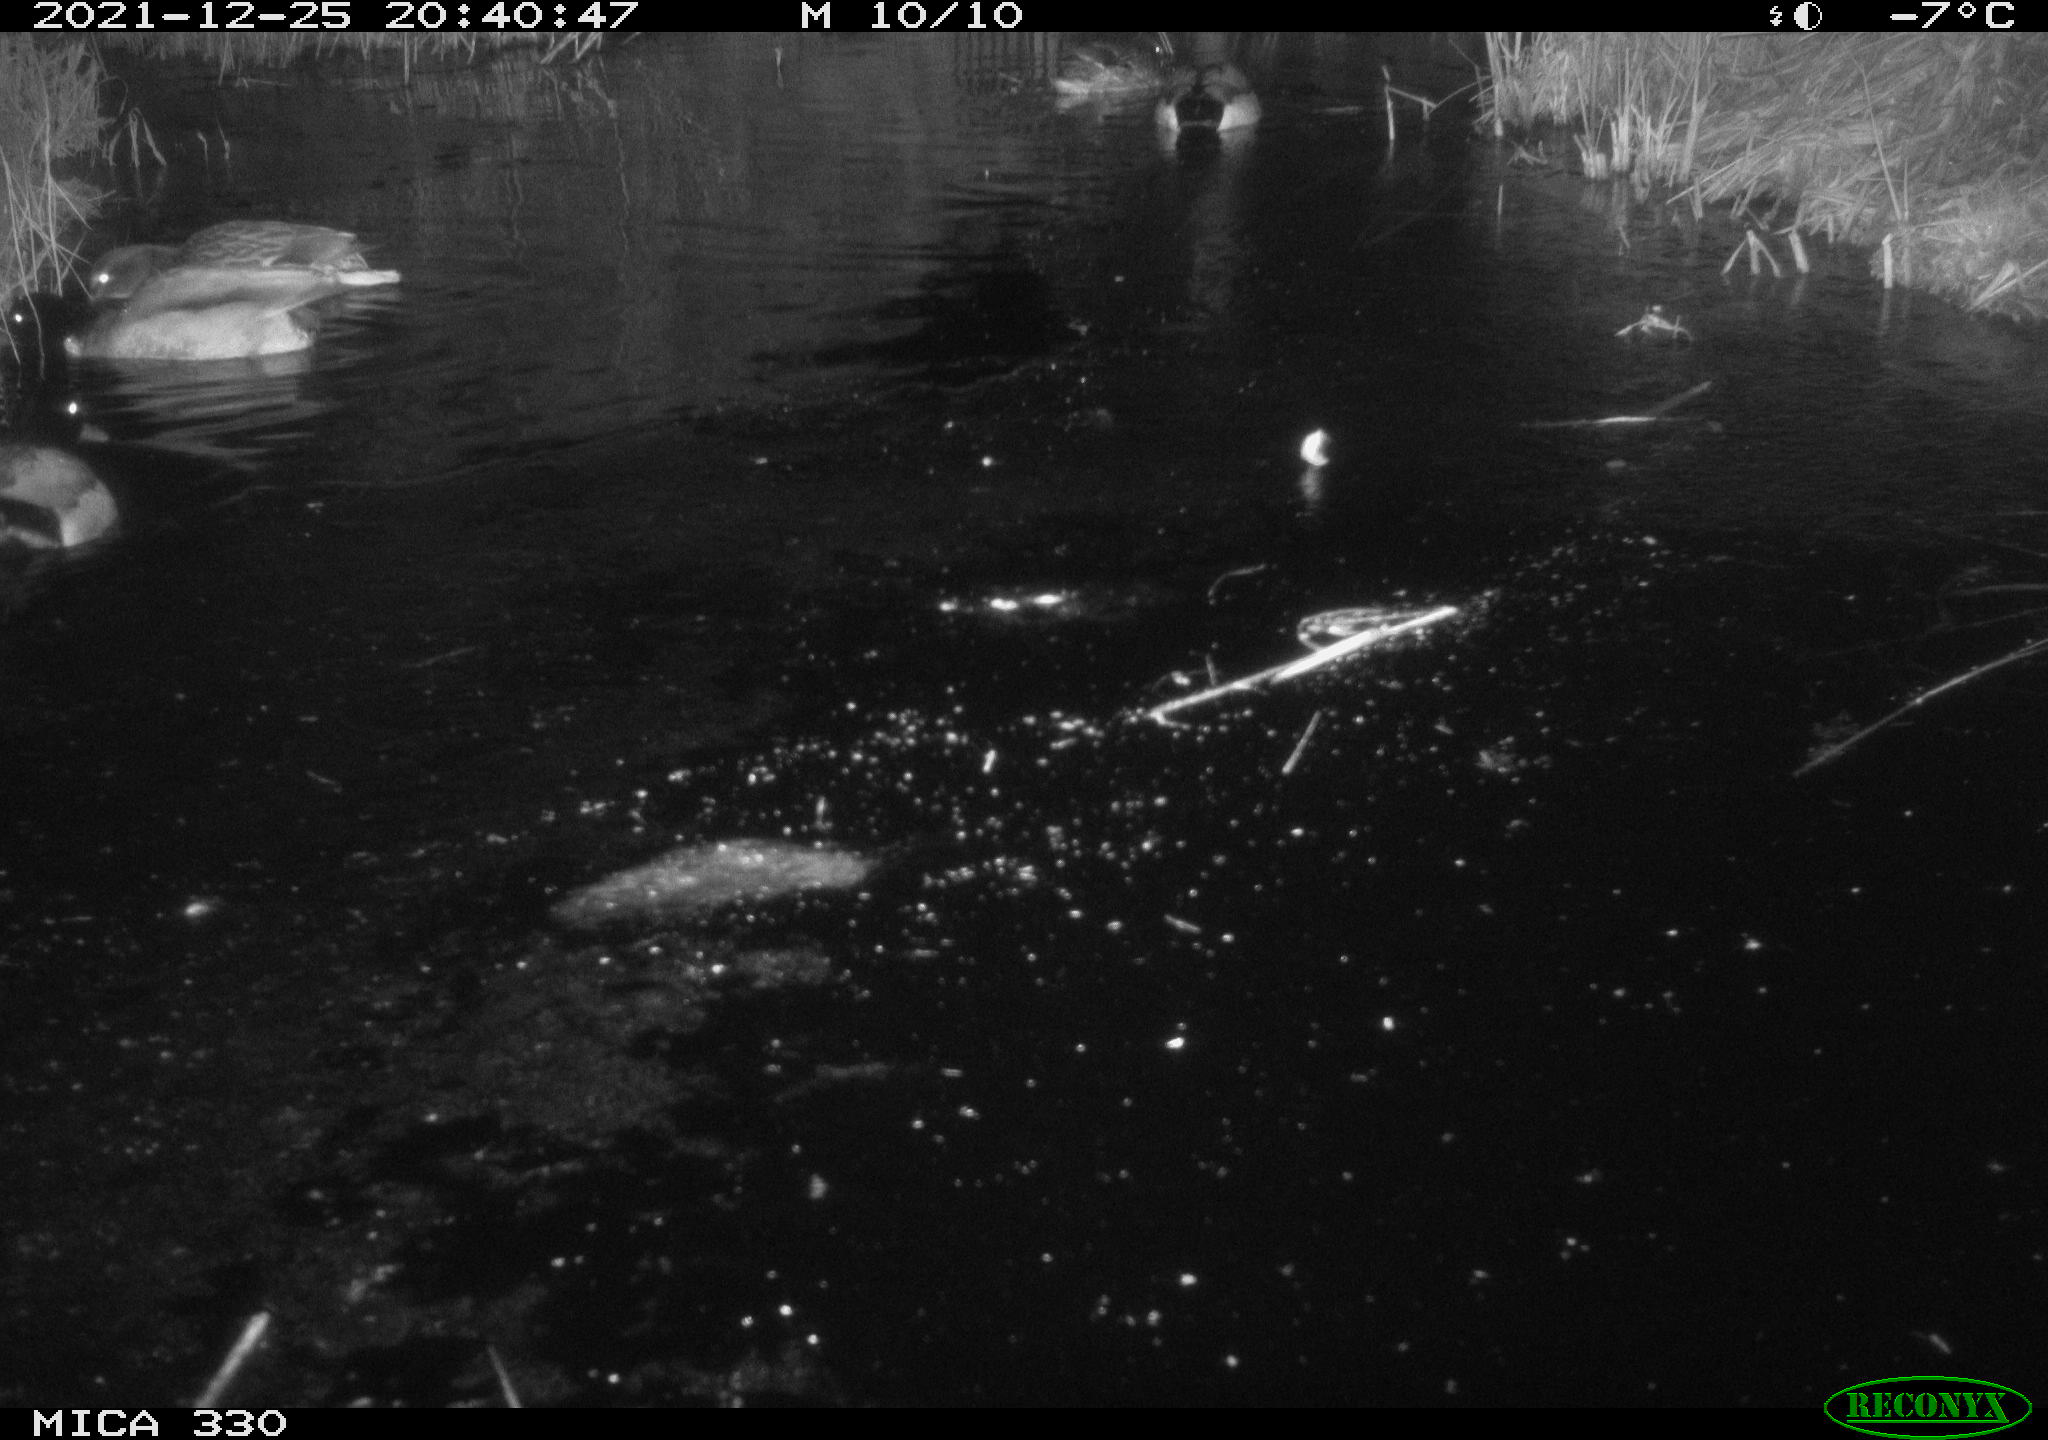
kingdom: Animalia
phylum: Chordata
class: Aves
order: Anseriformes
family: Anatidae
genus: Anas
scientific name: Anas platyrhynchos
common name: Mallard
